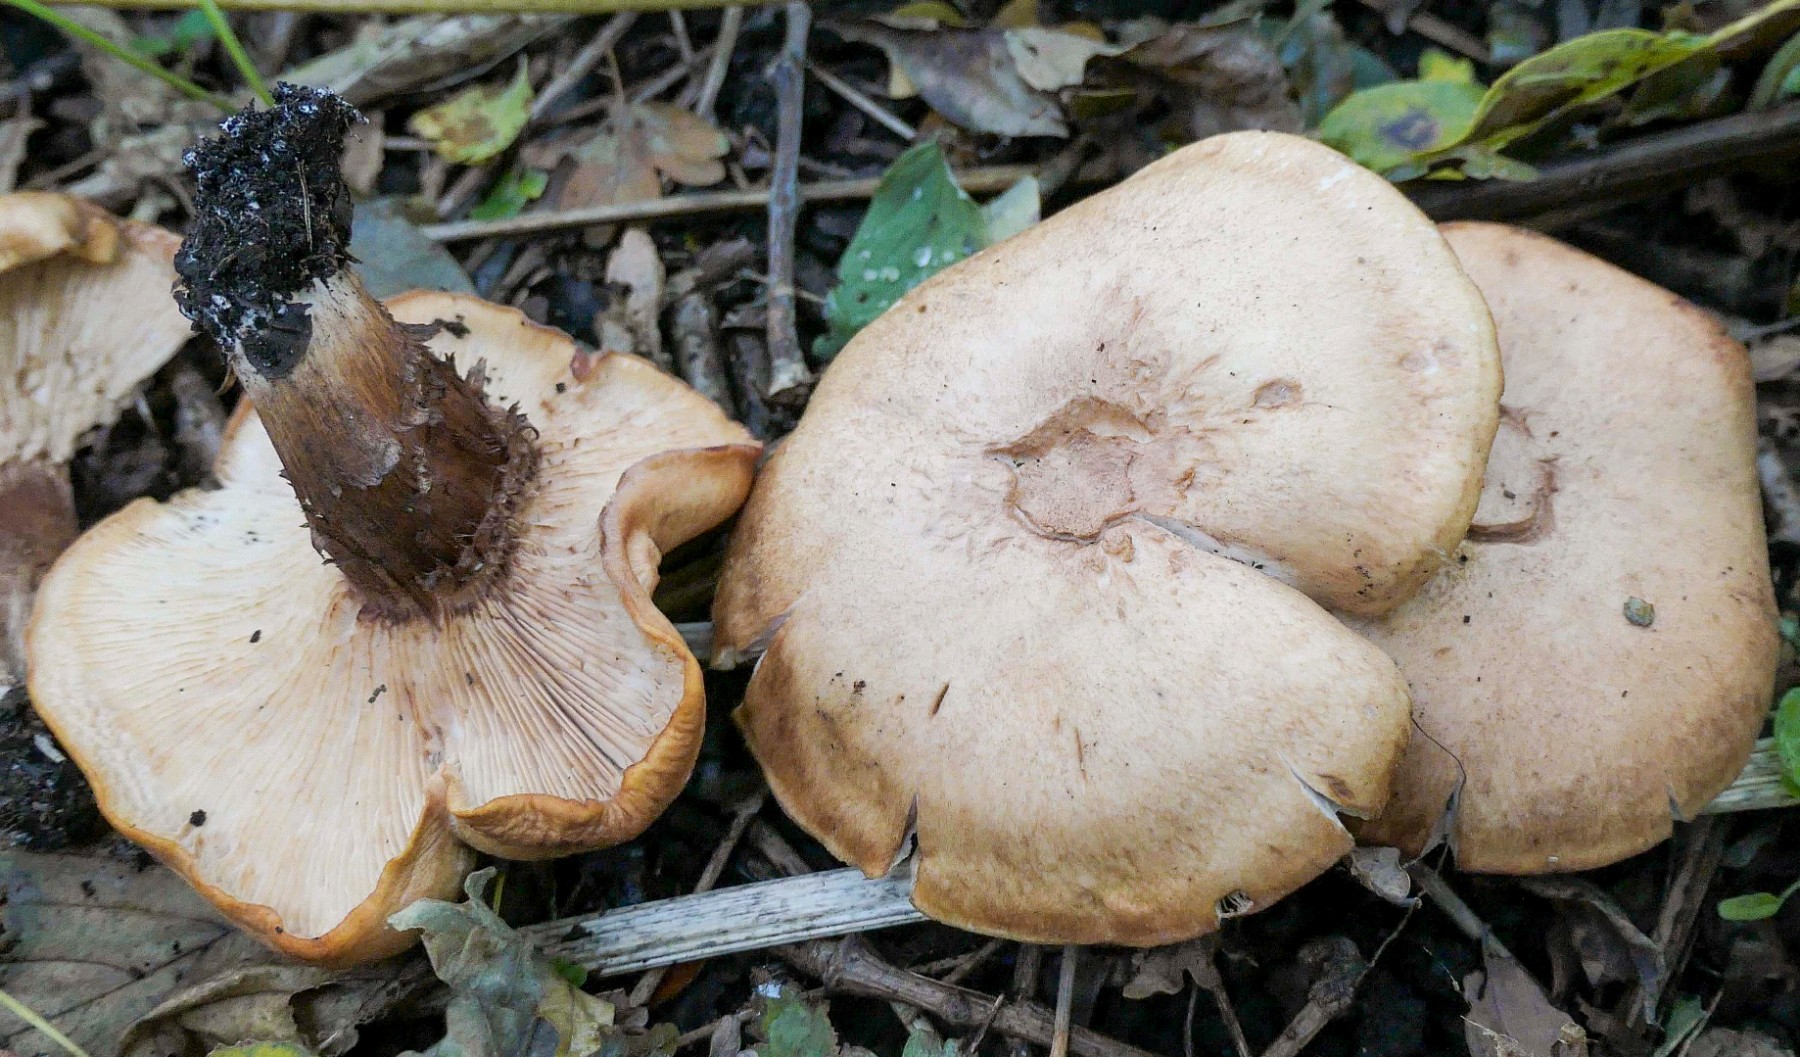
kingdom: Fungi
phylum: Basidiomycota
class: Agaricomycetes
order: Agaricales
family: Entolomataceae
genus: Clitopilus
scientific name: Clitopilus geminus
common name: kødfarvet troldhat
